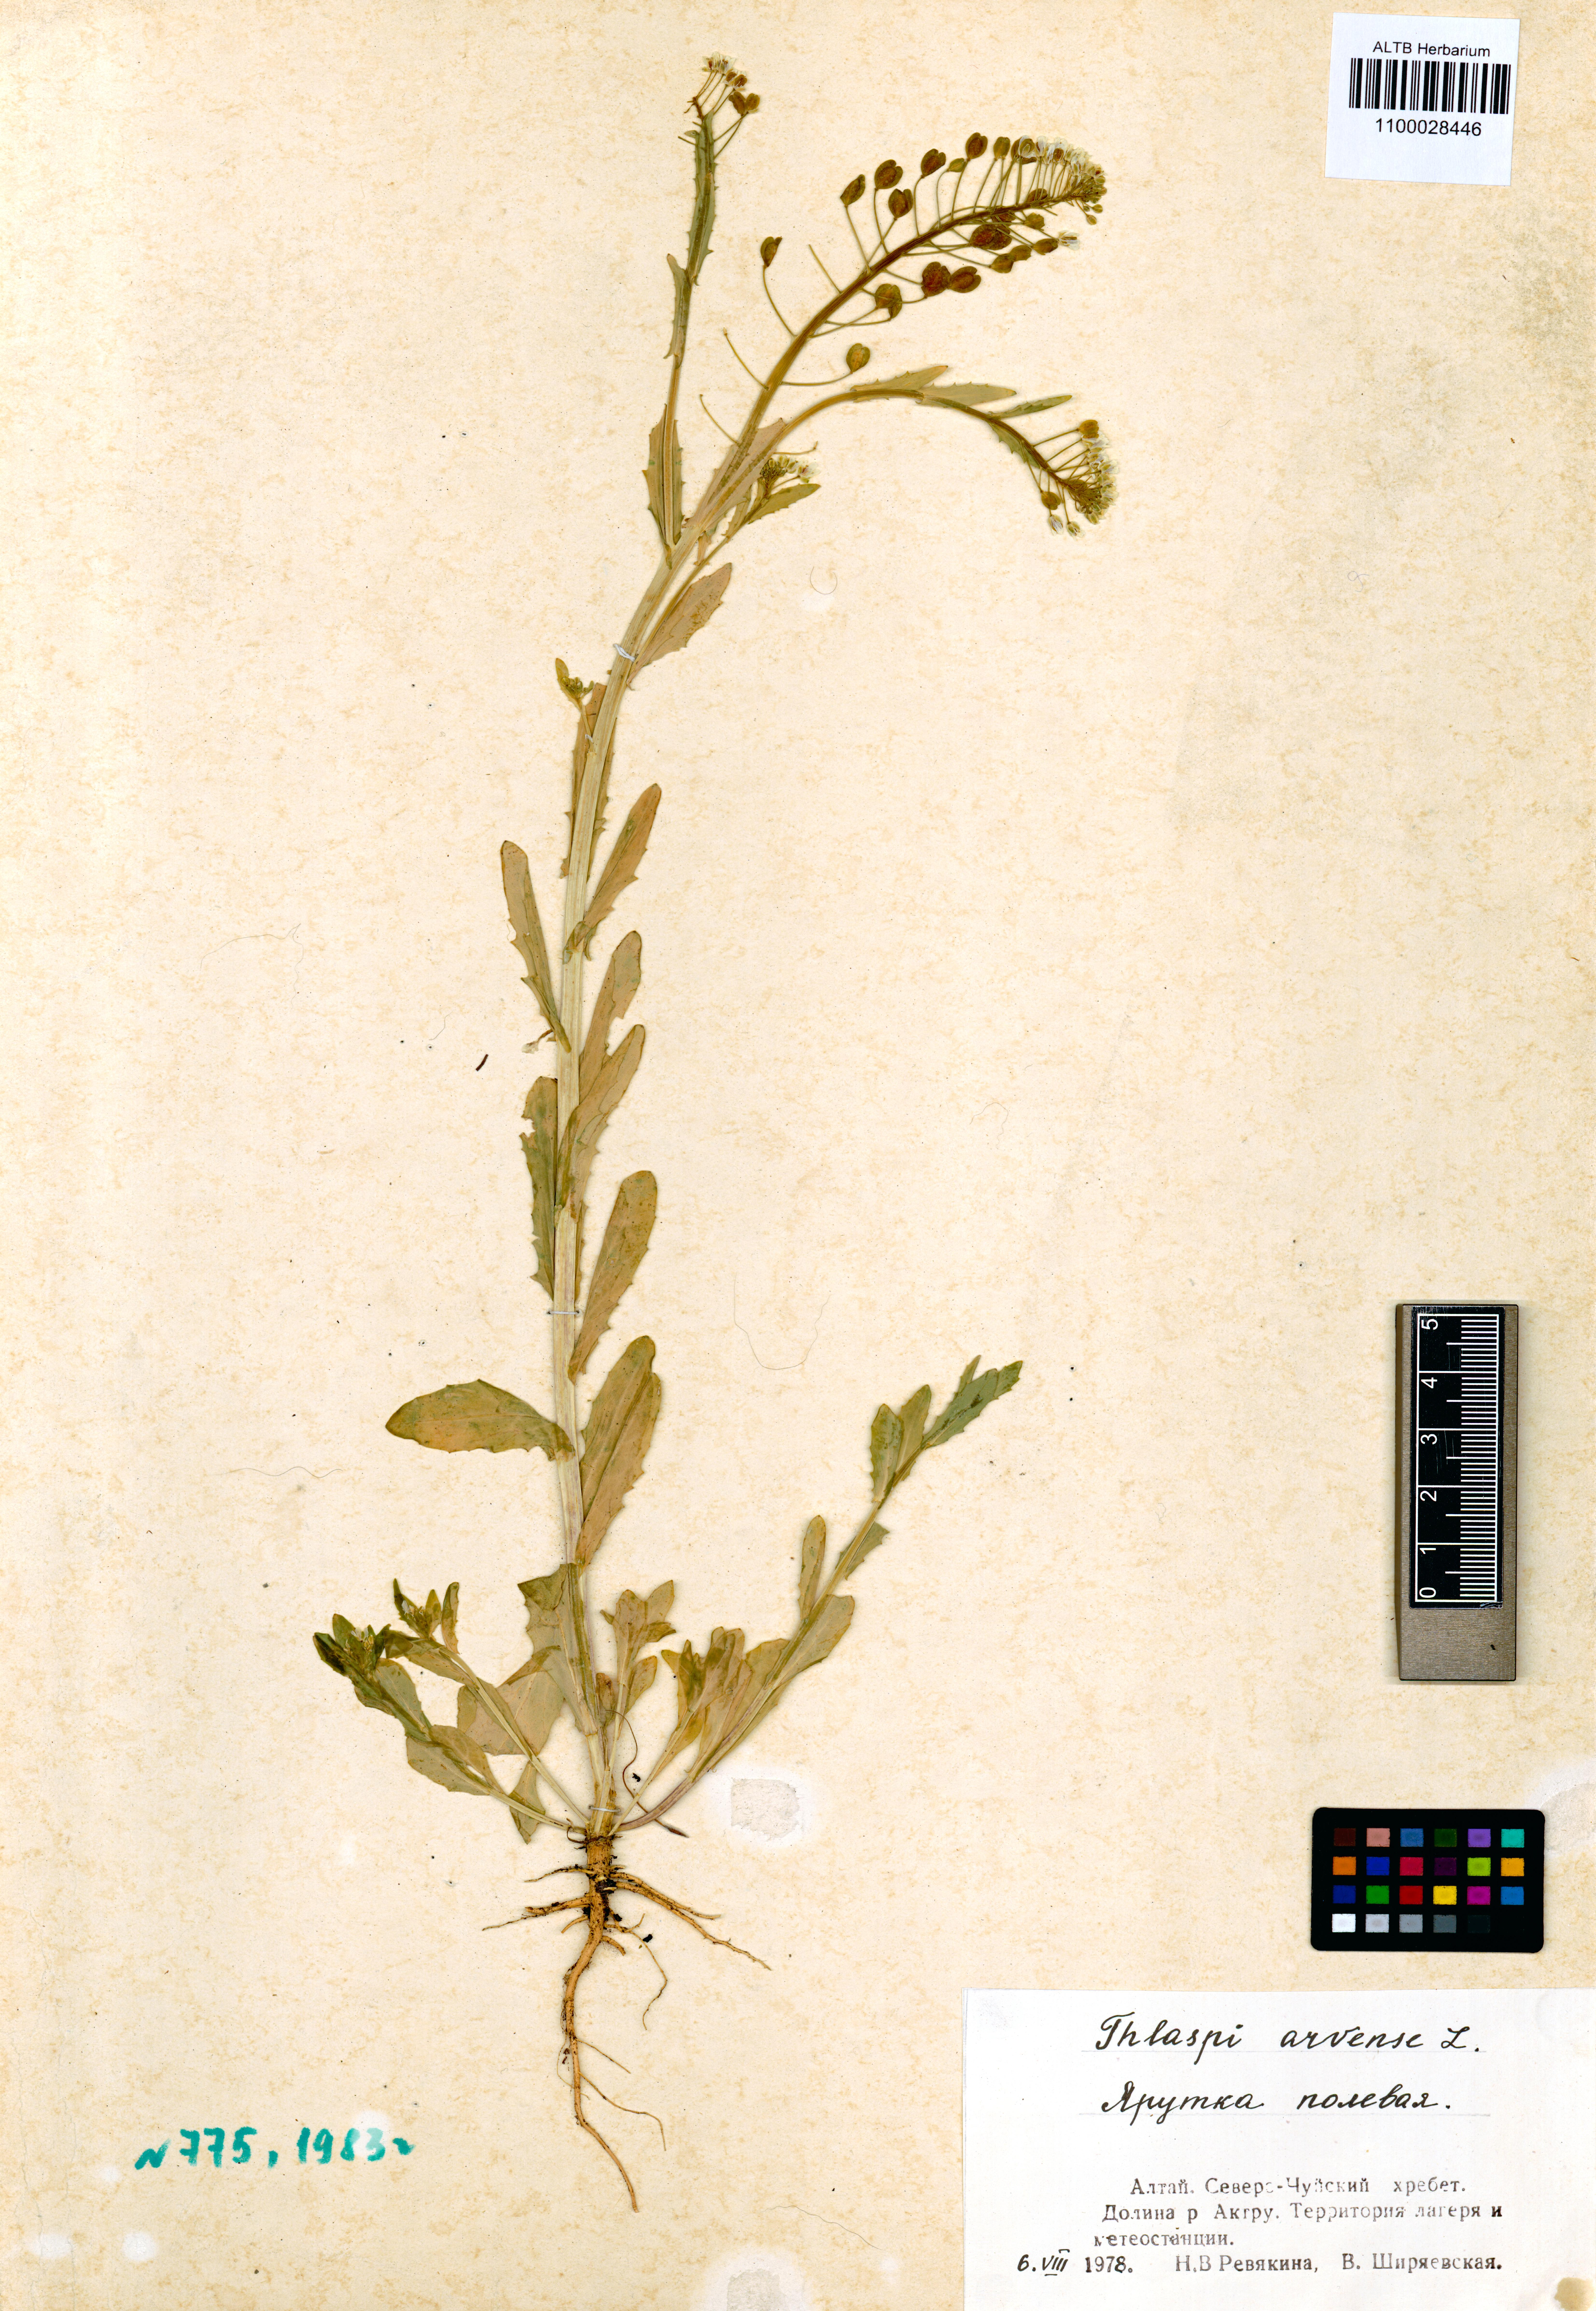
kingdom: Plantae
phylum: Tracheophyta
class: Magnoliopsida
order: Brassicales
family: Brassicaceae
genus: Thlaspi
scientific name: Thlaspi arvense
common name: Field pennycress
